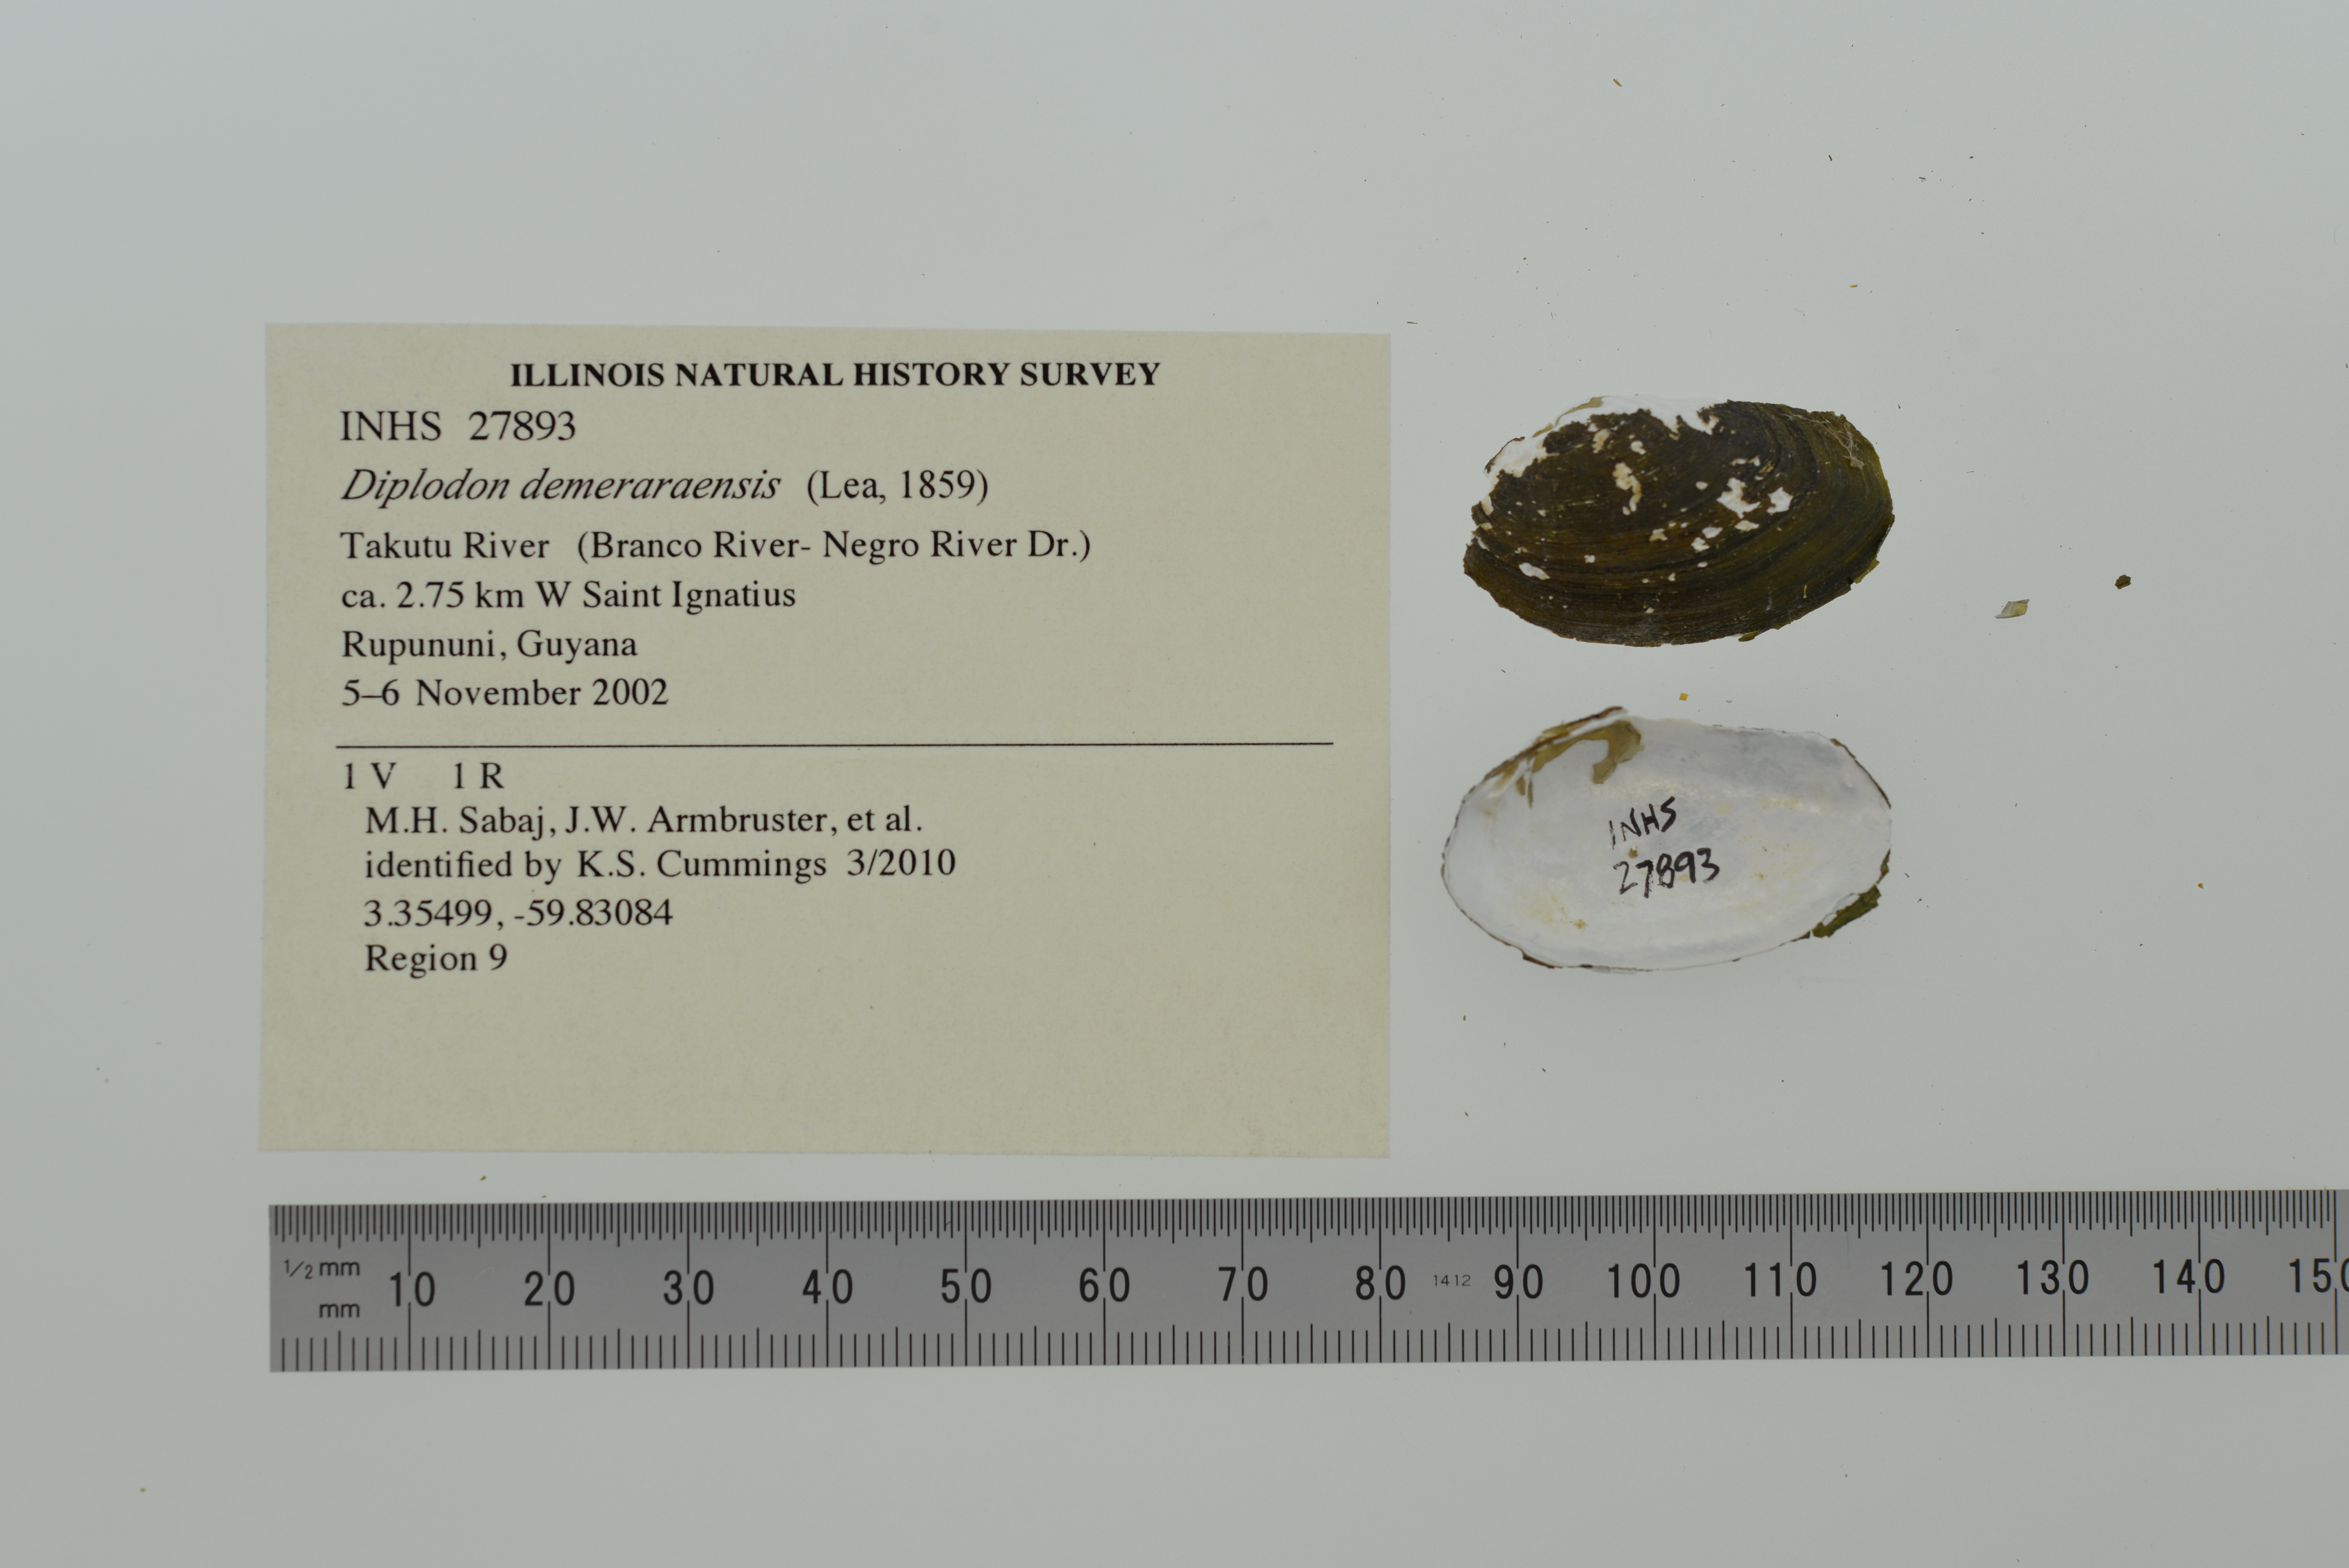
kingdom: Animalia
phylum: Mollusca
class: Bivalvia
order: Unionida
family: Hyriidae
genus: Diplodon
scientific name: Diplodon demeraraensis
